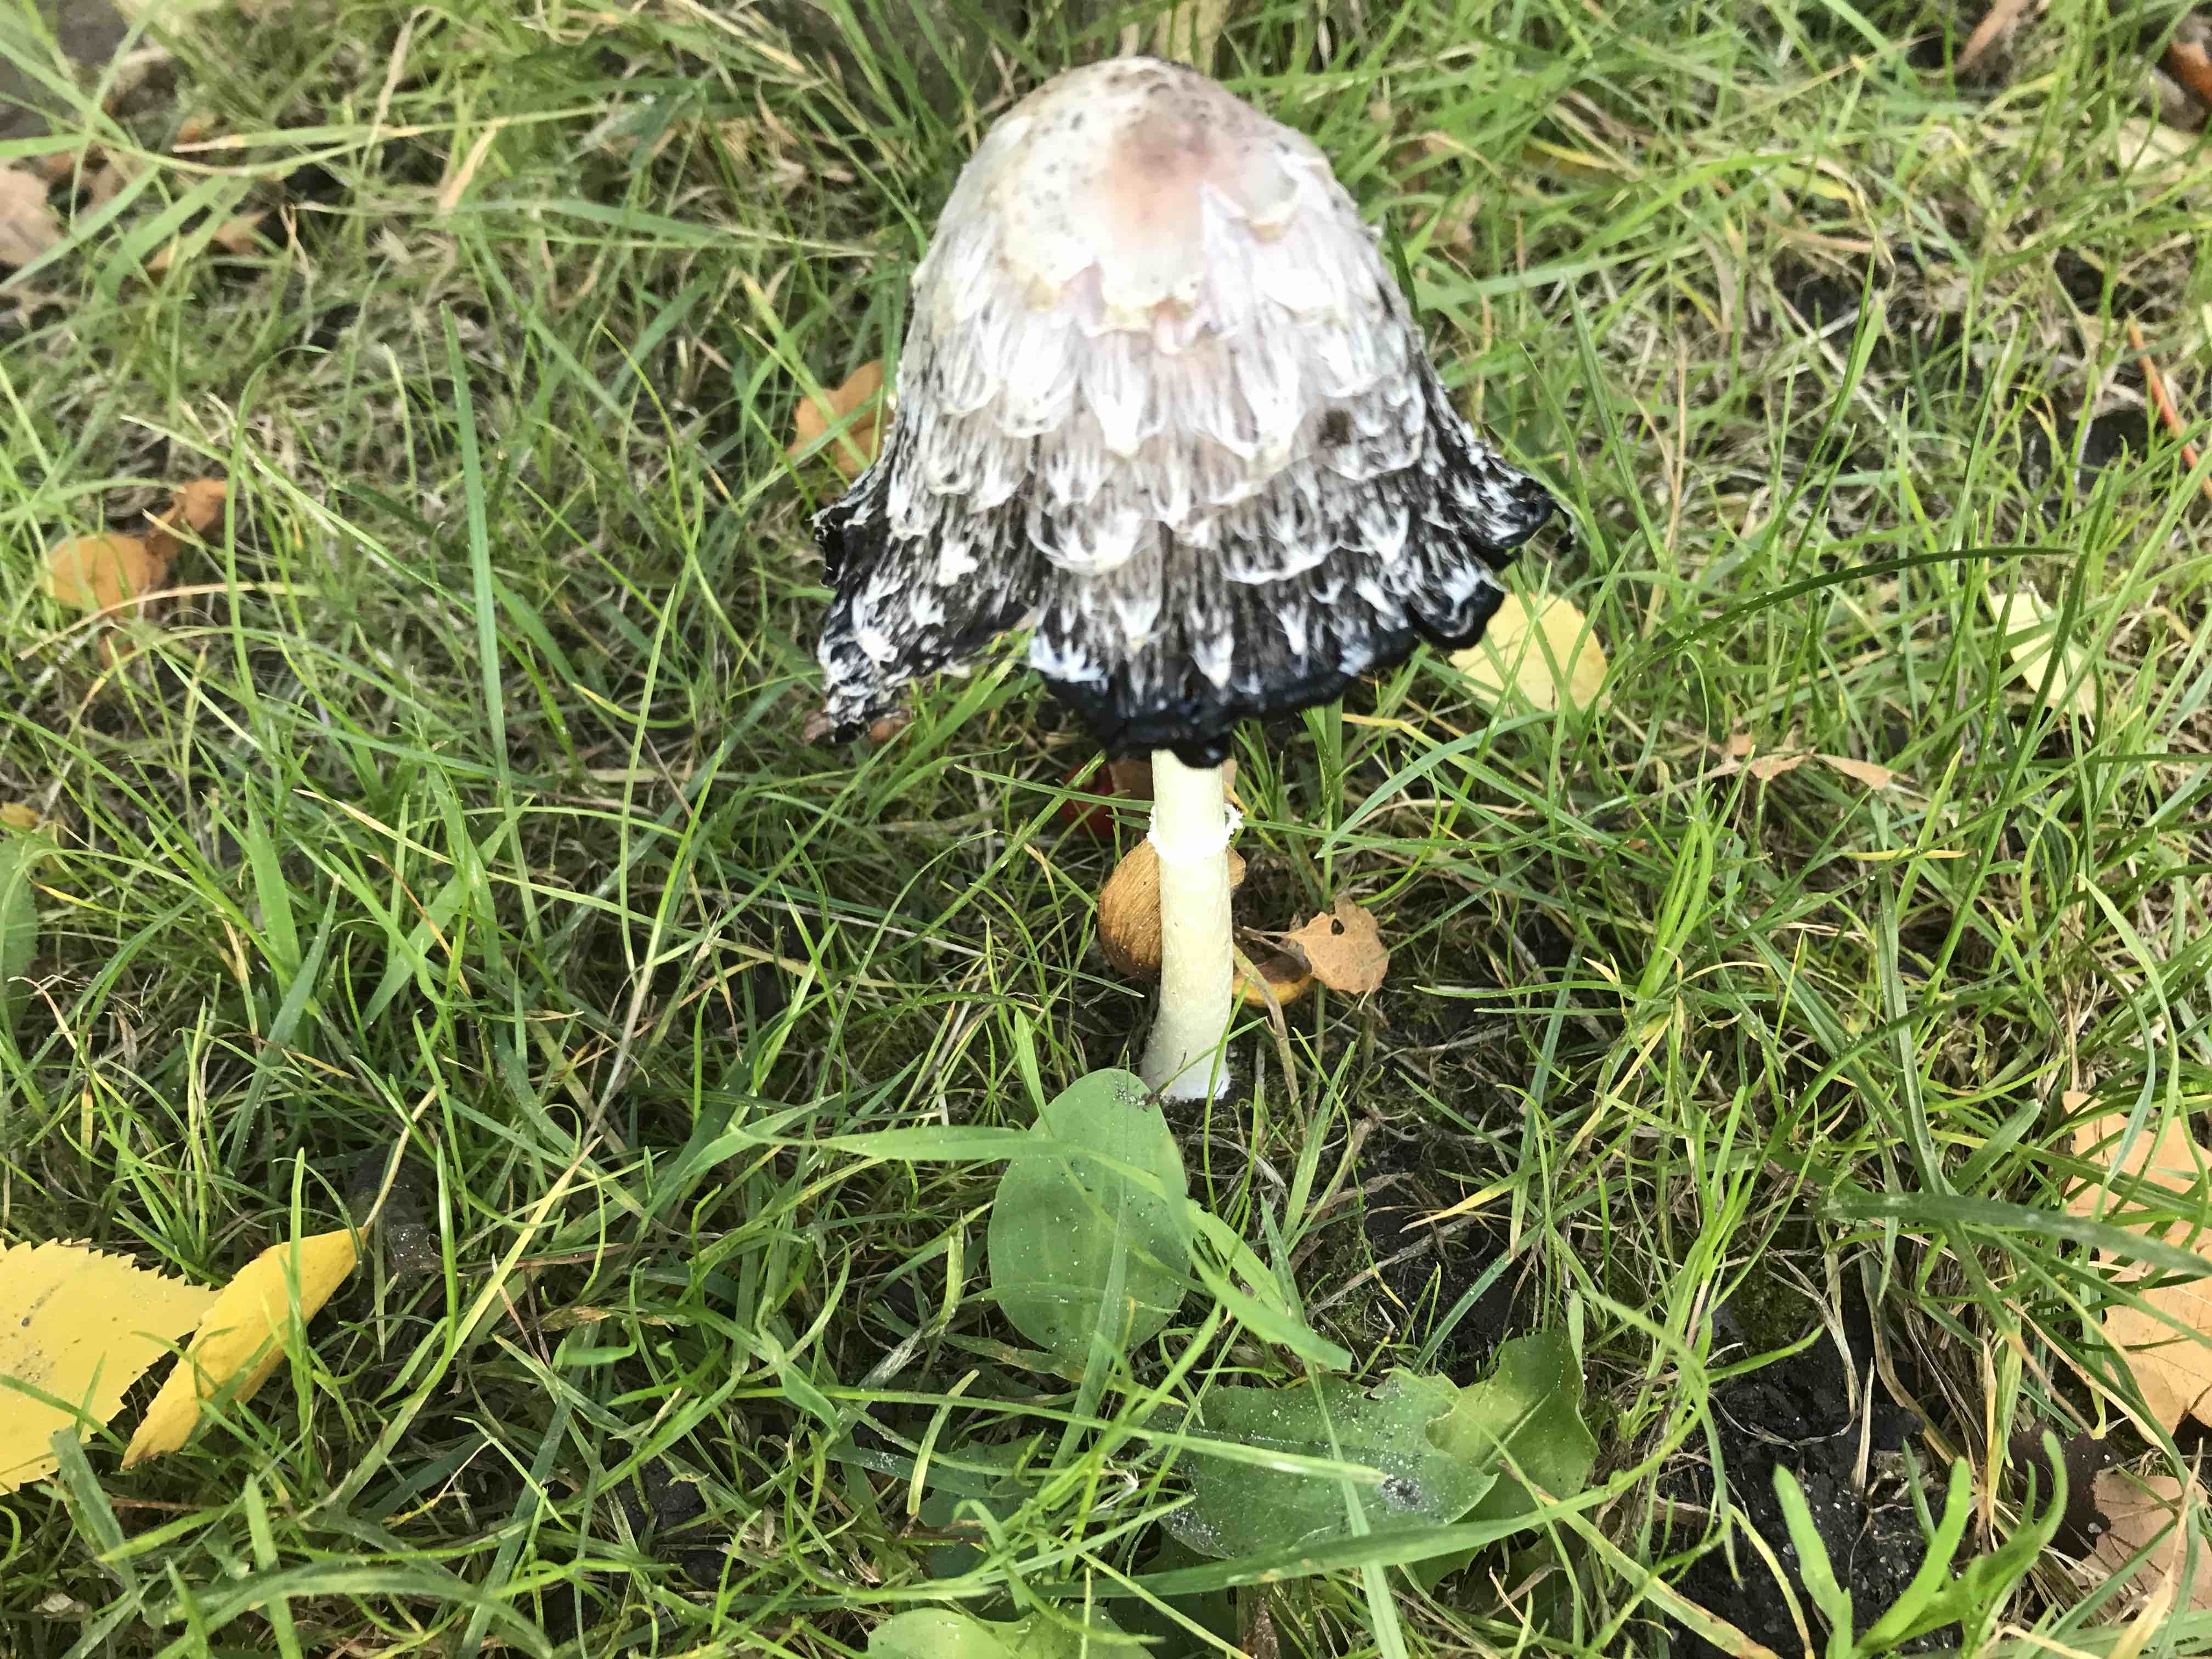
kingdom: Fungi
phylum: Basidiomycota
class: Agaricomycetes
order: Agaricales
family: Agaricaceae
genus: Coprinus
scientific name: Coprinus comatus
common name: stor parykhat
